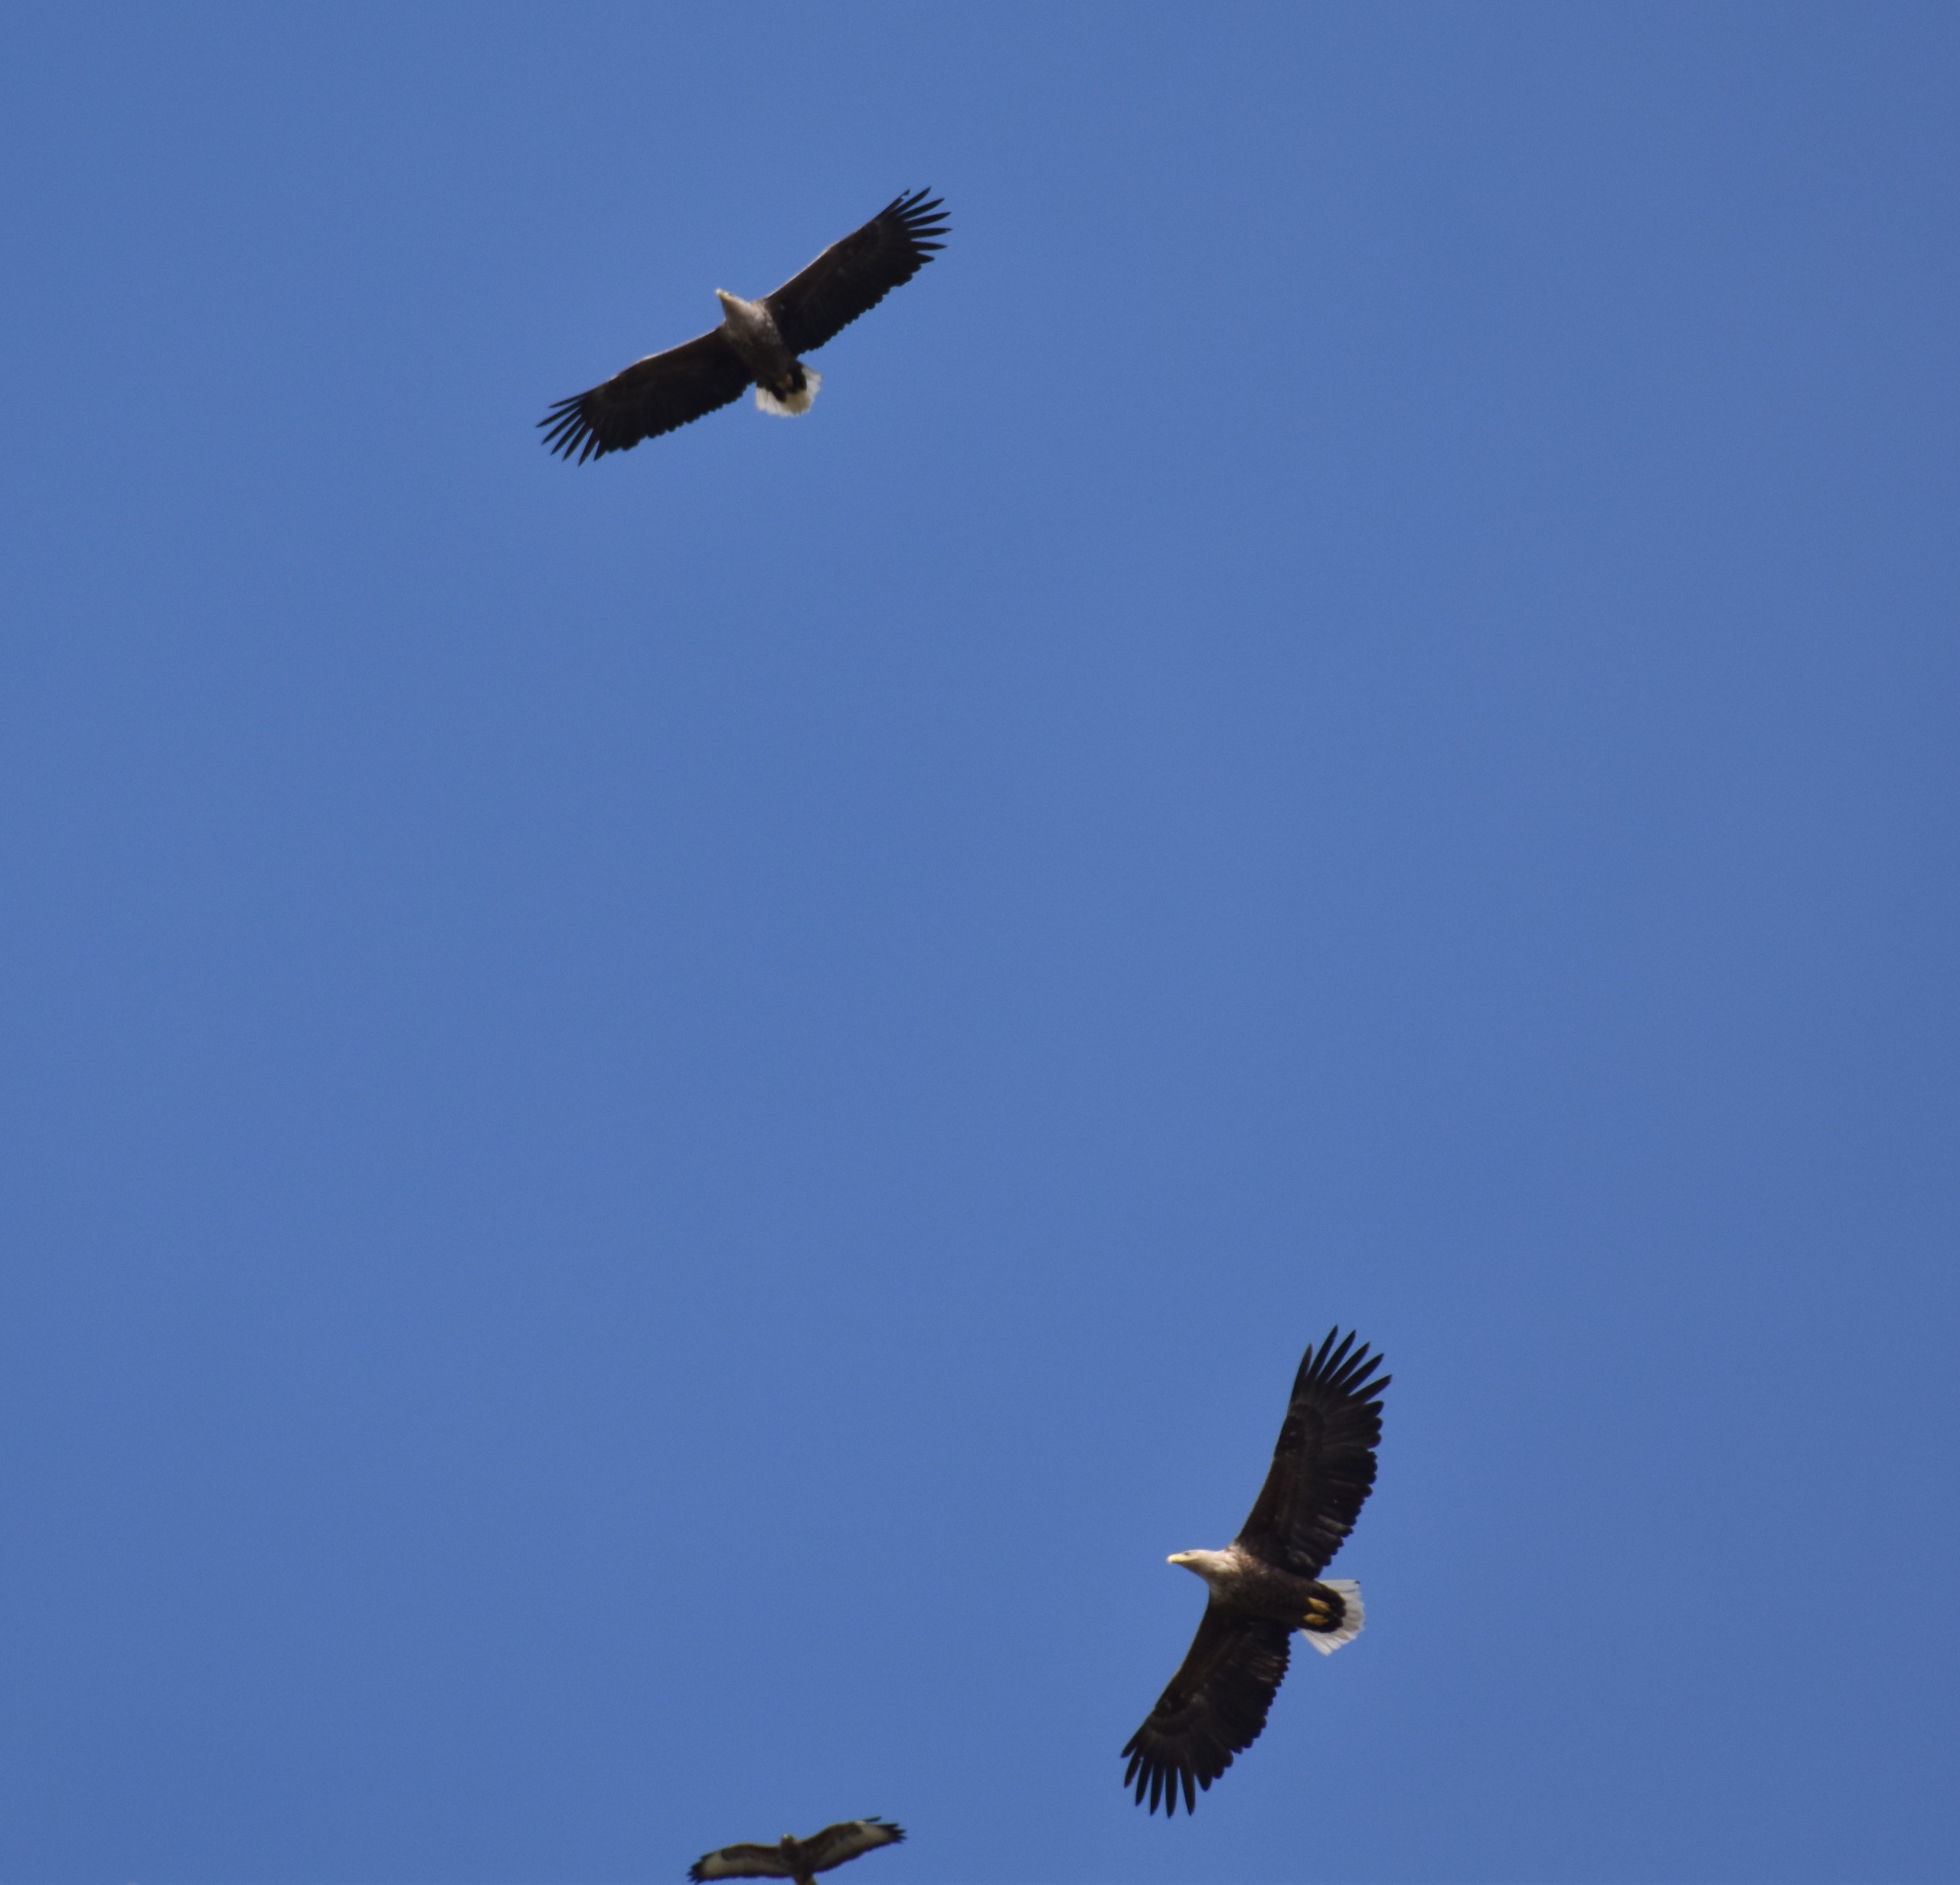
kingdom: Animalia
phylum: Chordata
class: Aves
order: Accipitriformes
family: Accipitridae
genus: Haliaeetus
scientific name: Haliaeetus albicilla
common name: Havørn
